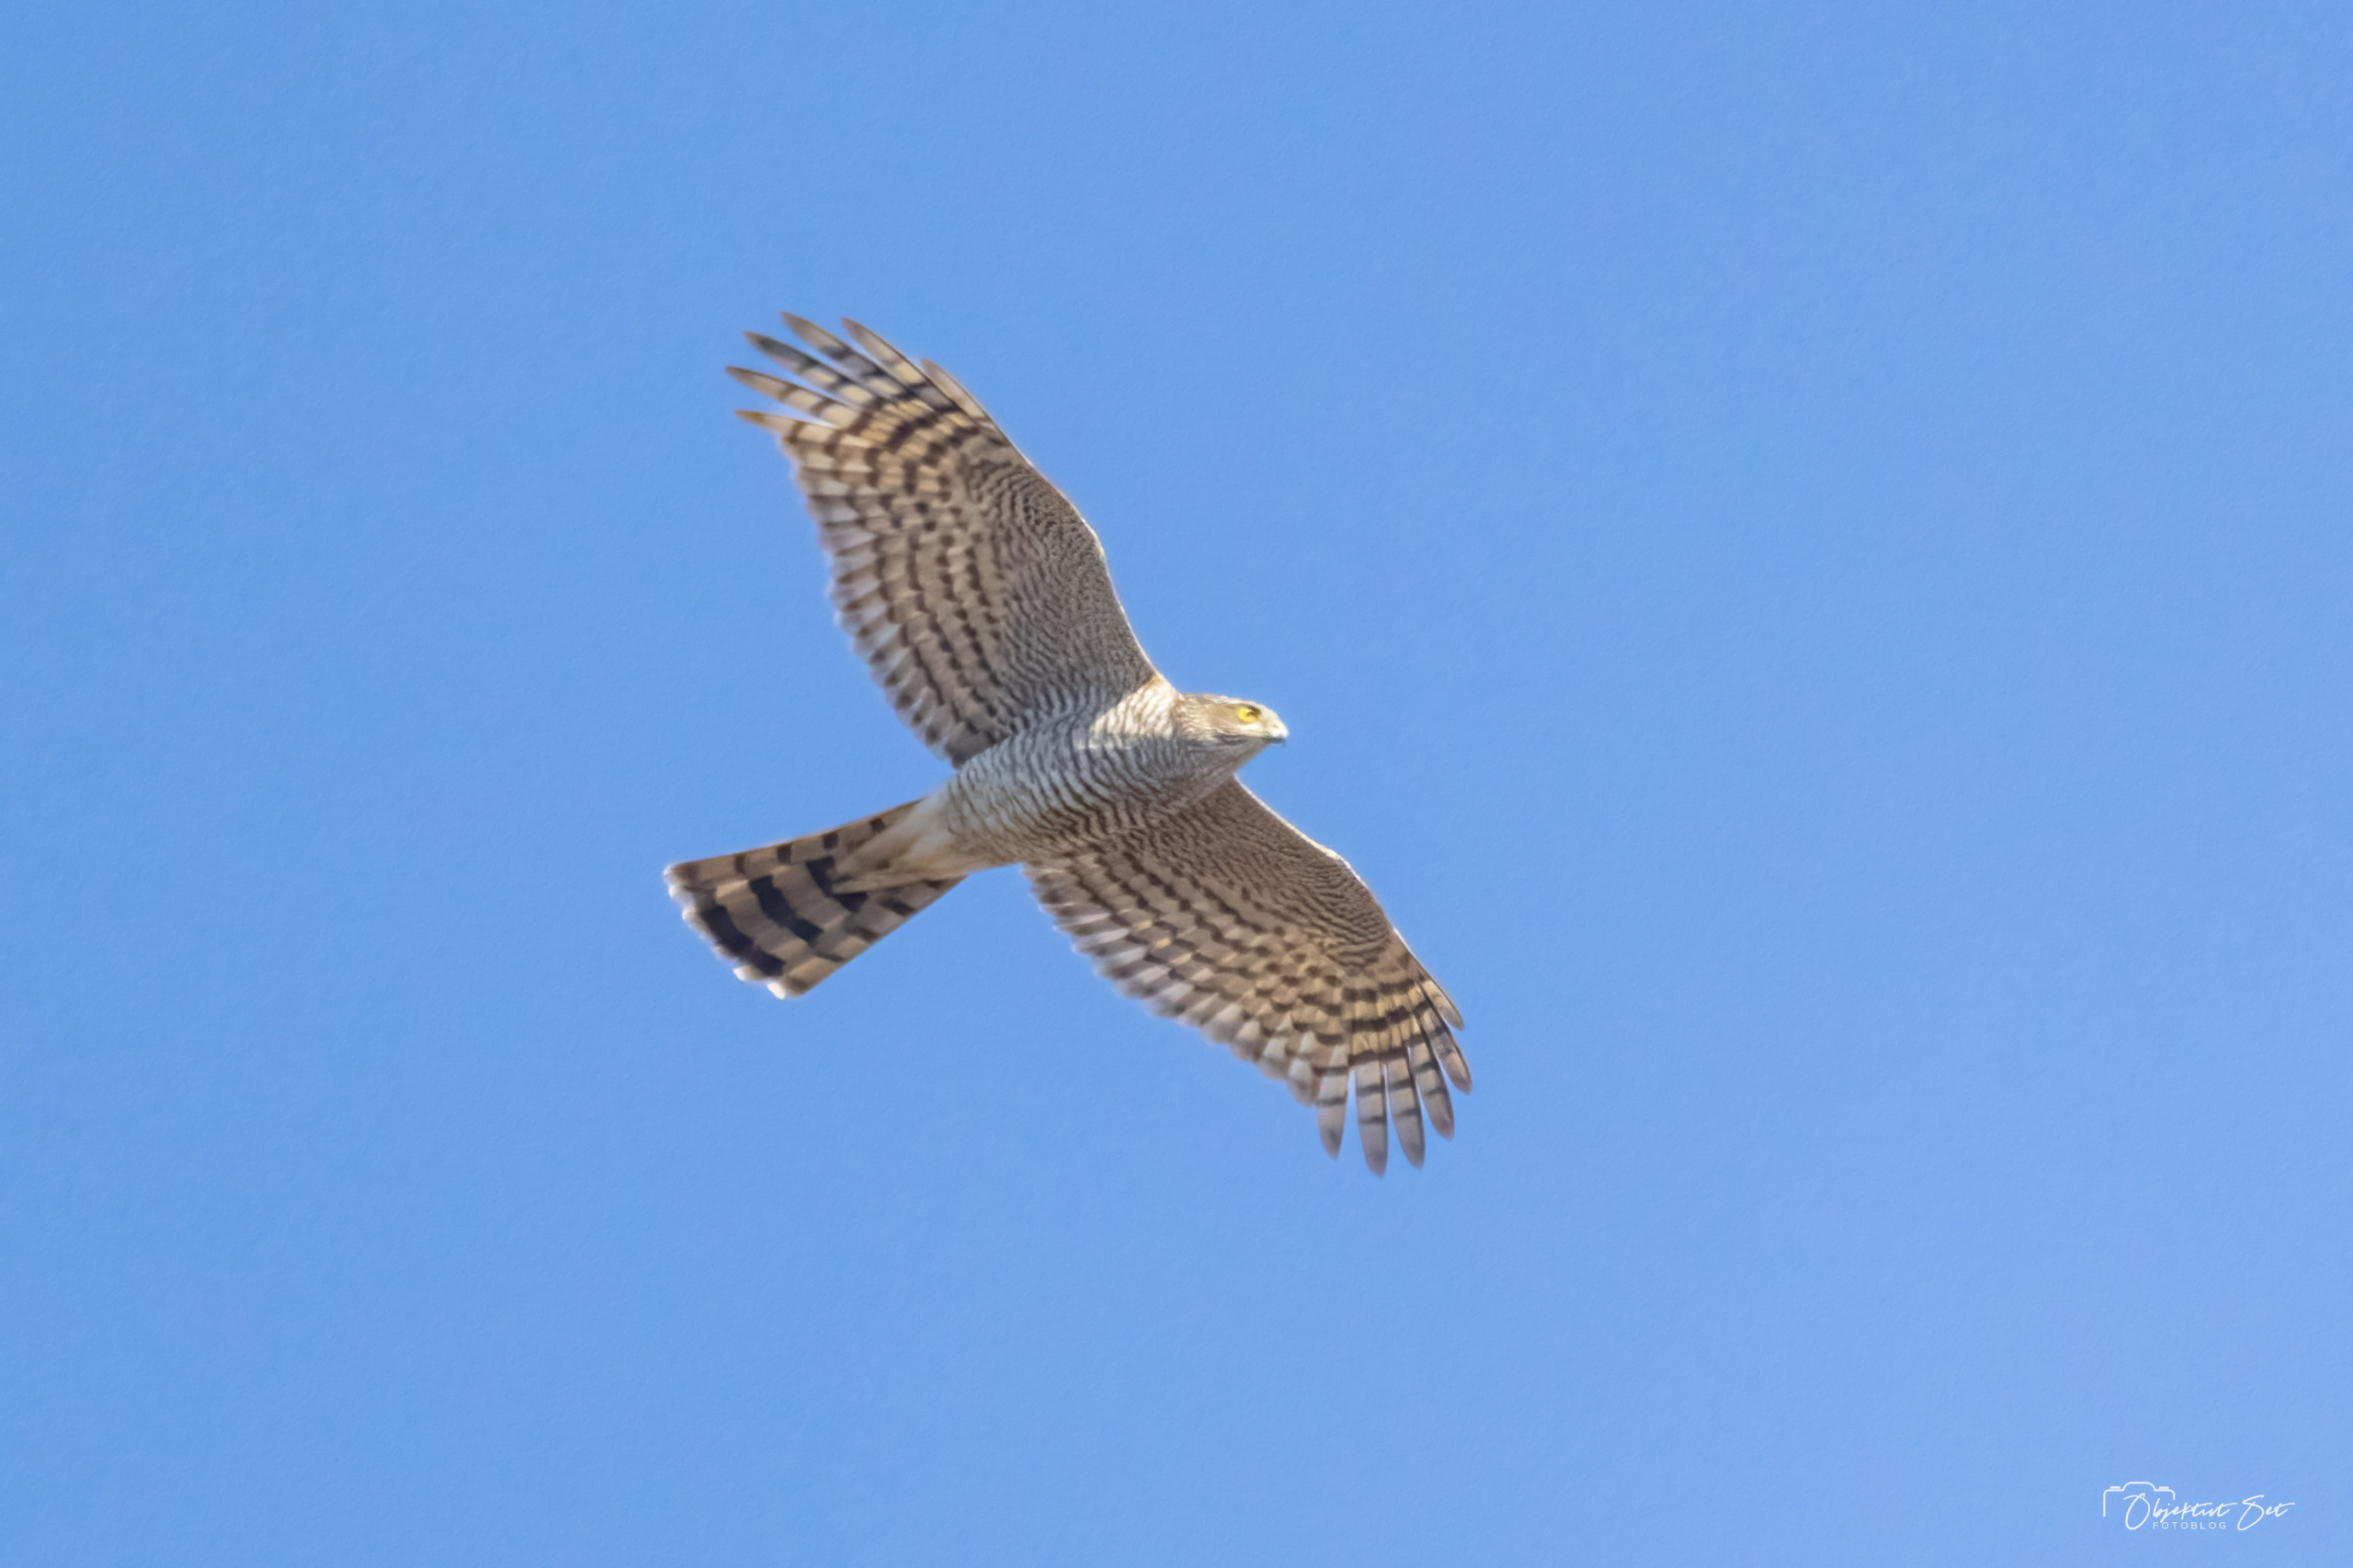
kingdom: Animalia
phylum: Chordata
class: Aves
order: Accipitriformes
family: Accipitridae
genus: Accipiter
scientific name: Accipiter nisus
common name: Spurvehøg
